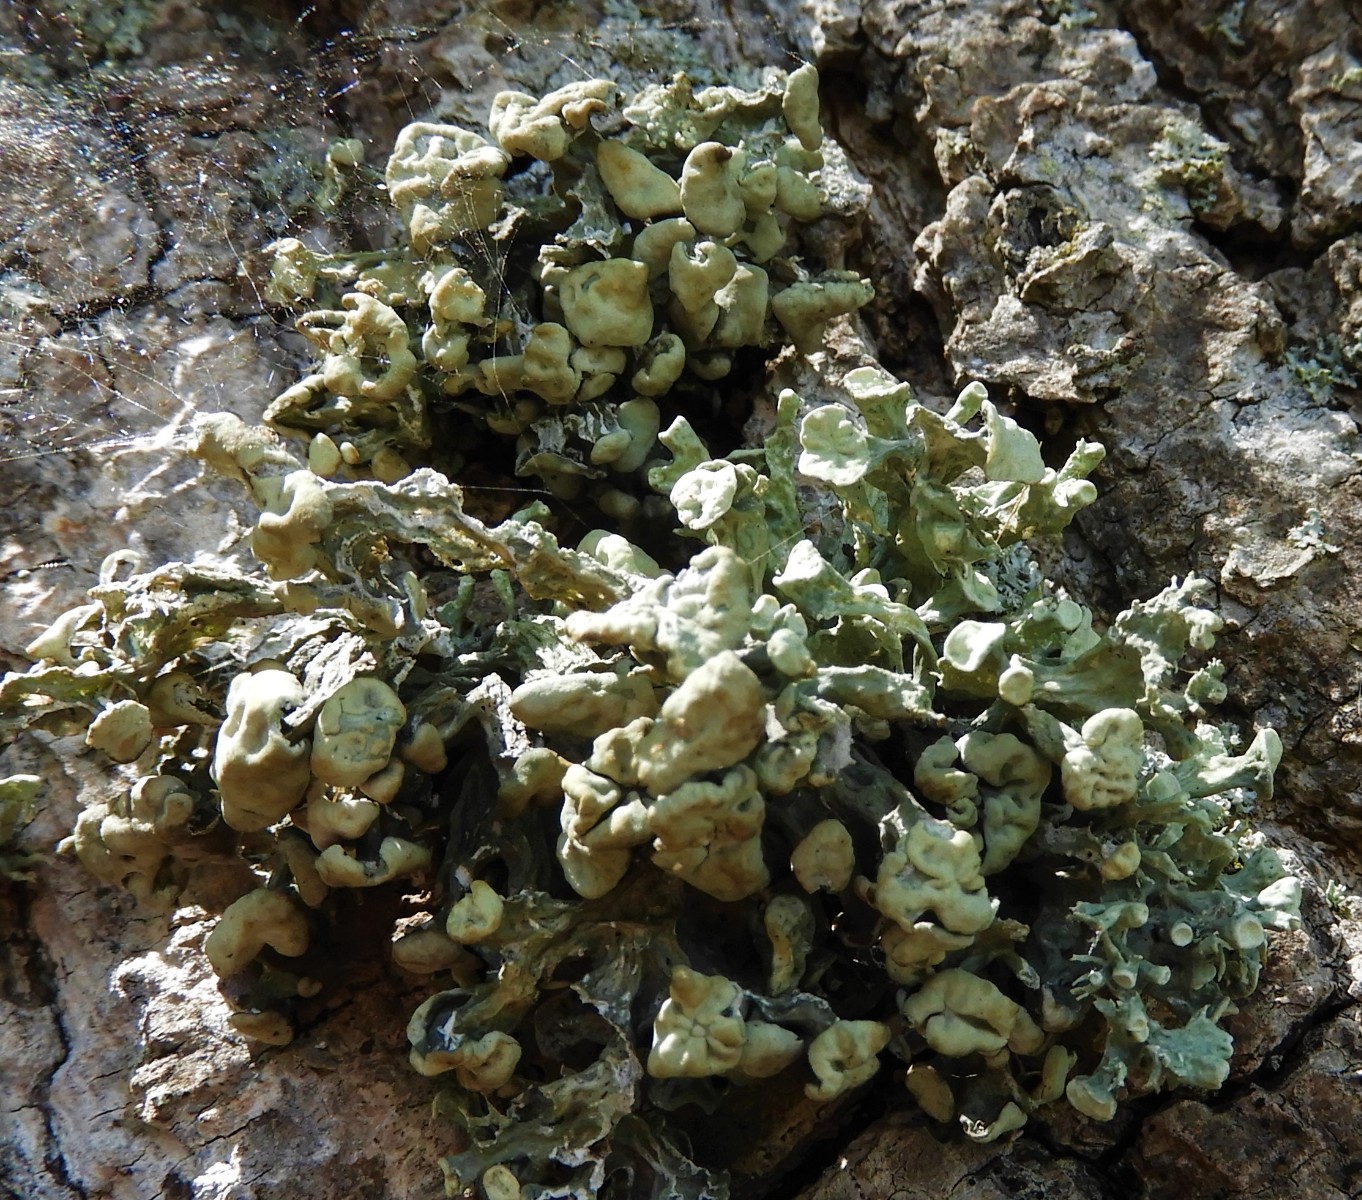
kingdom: Fungi
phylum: Ascomycota
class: Lecanoromycetes
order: Lecanorales
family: Ramalinaceae
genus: Ramalina
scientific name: Ramalina fastigiata
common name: tue-grenlav
